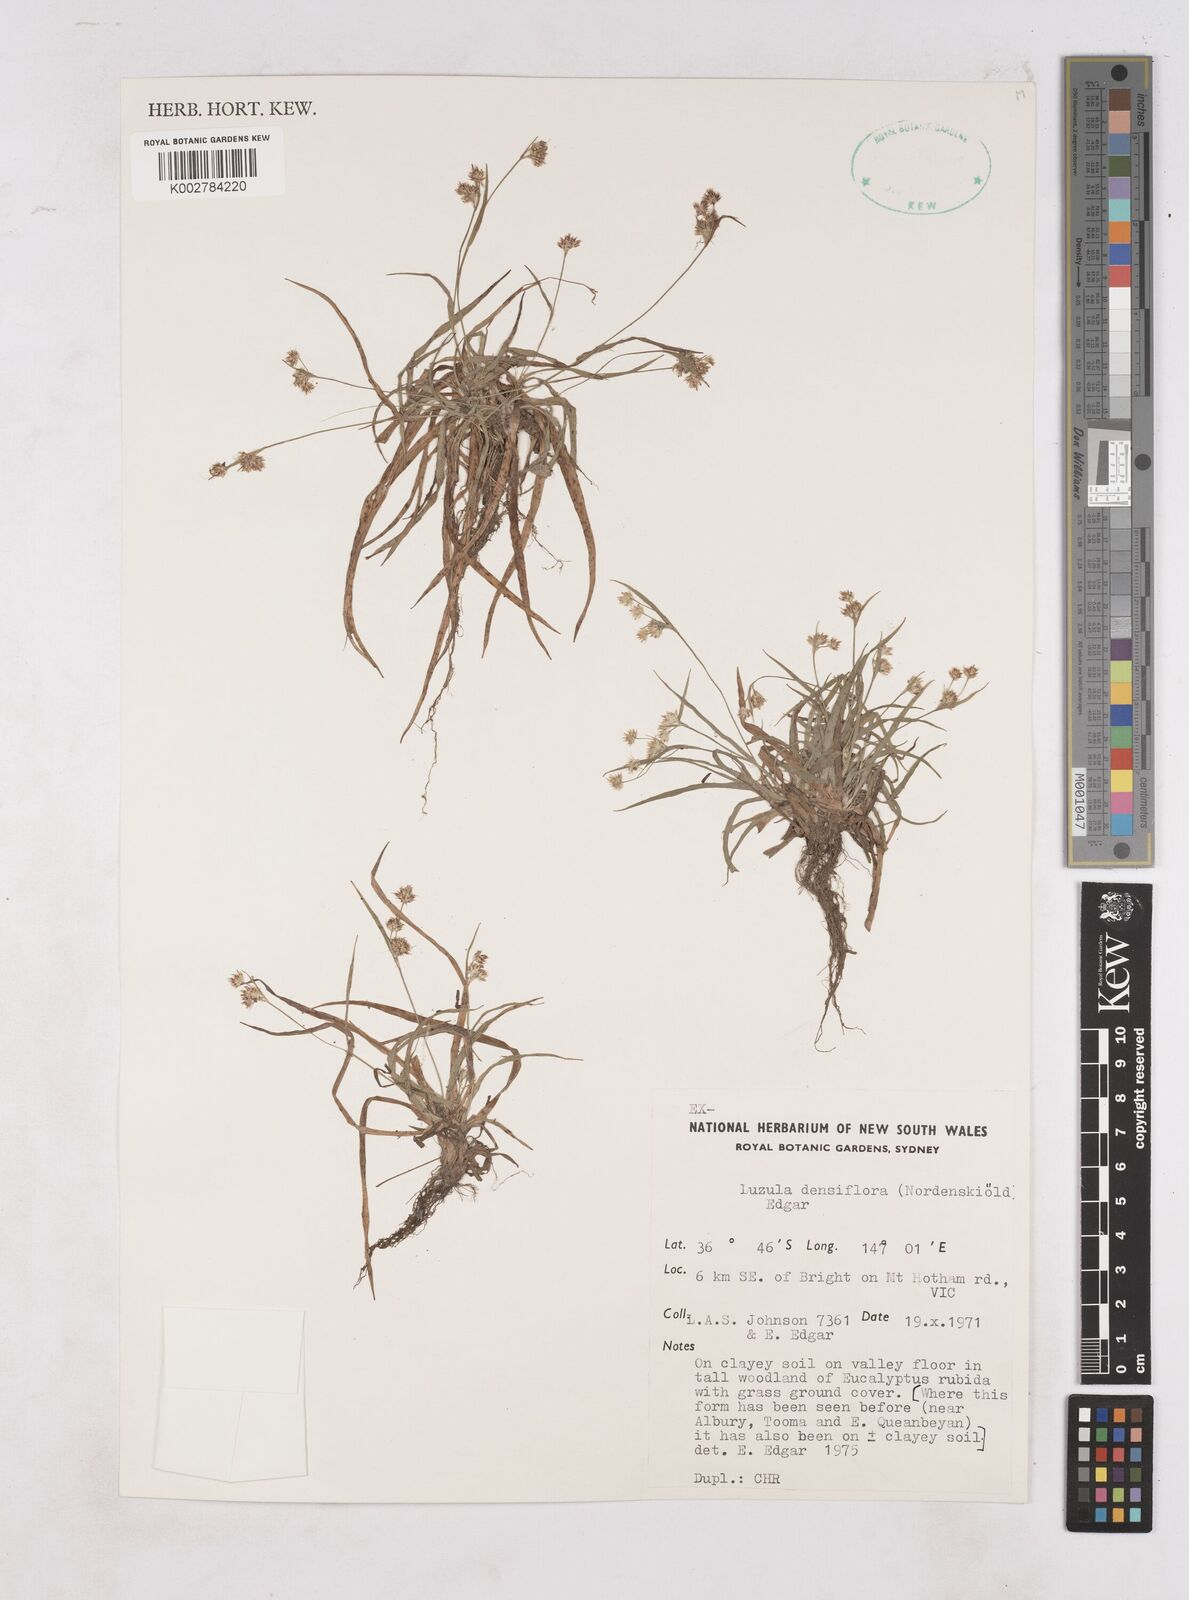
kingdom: Plantae
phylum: Tracheophyta
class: Liliopsida
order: Poales
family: Juncaceae
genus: Luzula
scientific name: Luzula densiflora
